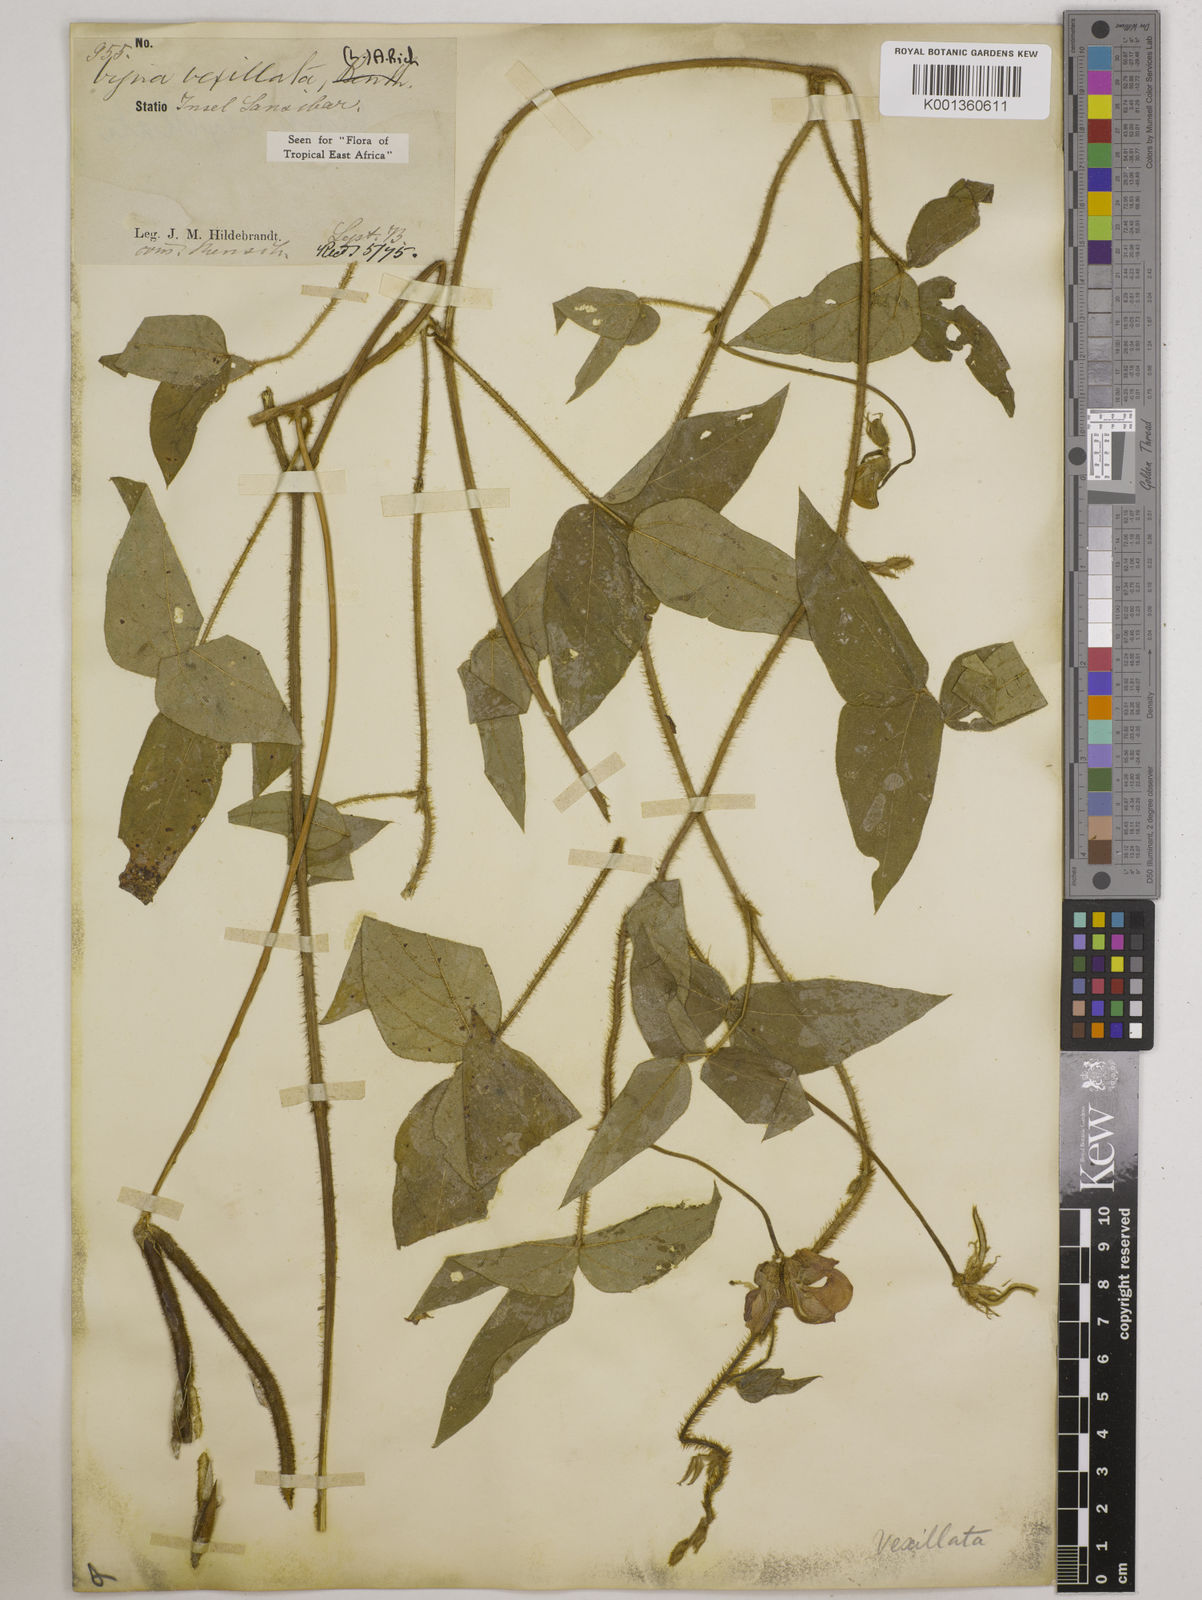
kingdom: Plantae
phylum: Tracheophyta
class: Magnoliopsida
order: Fabales
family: Fabaceae
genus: Vigna
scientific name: Vigna vexillata
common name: Zombi pea
